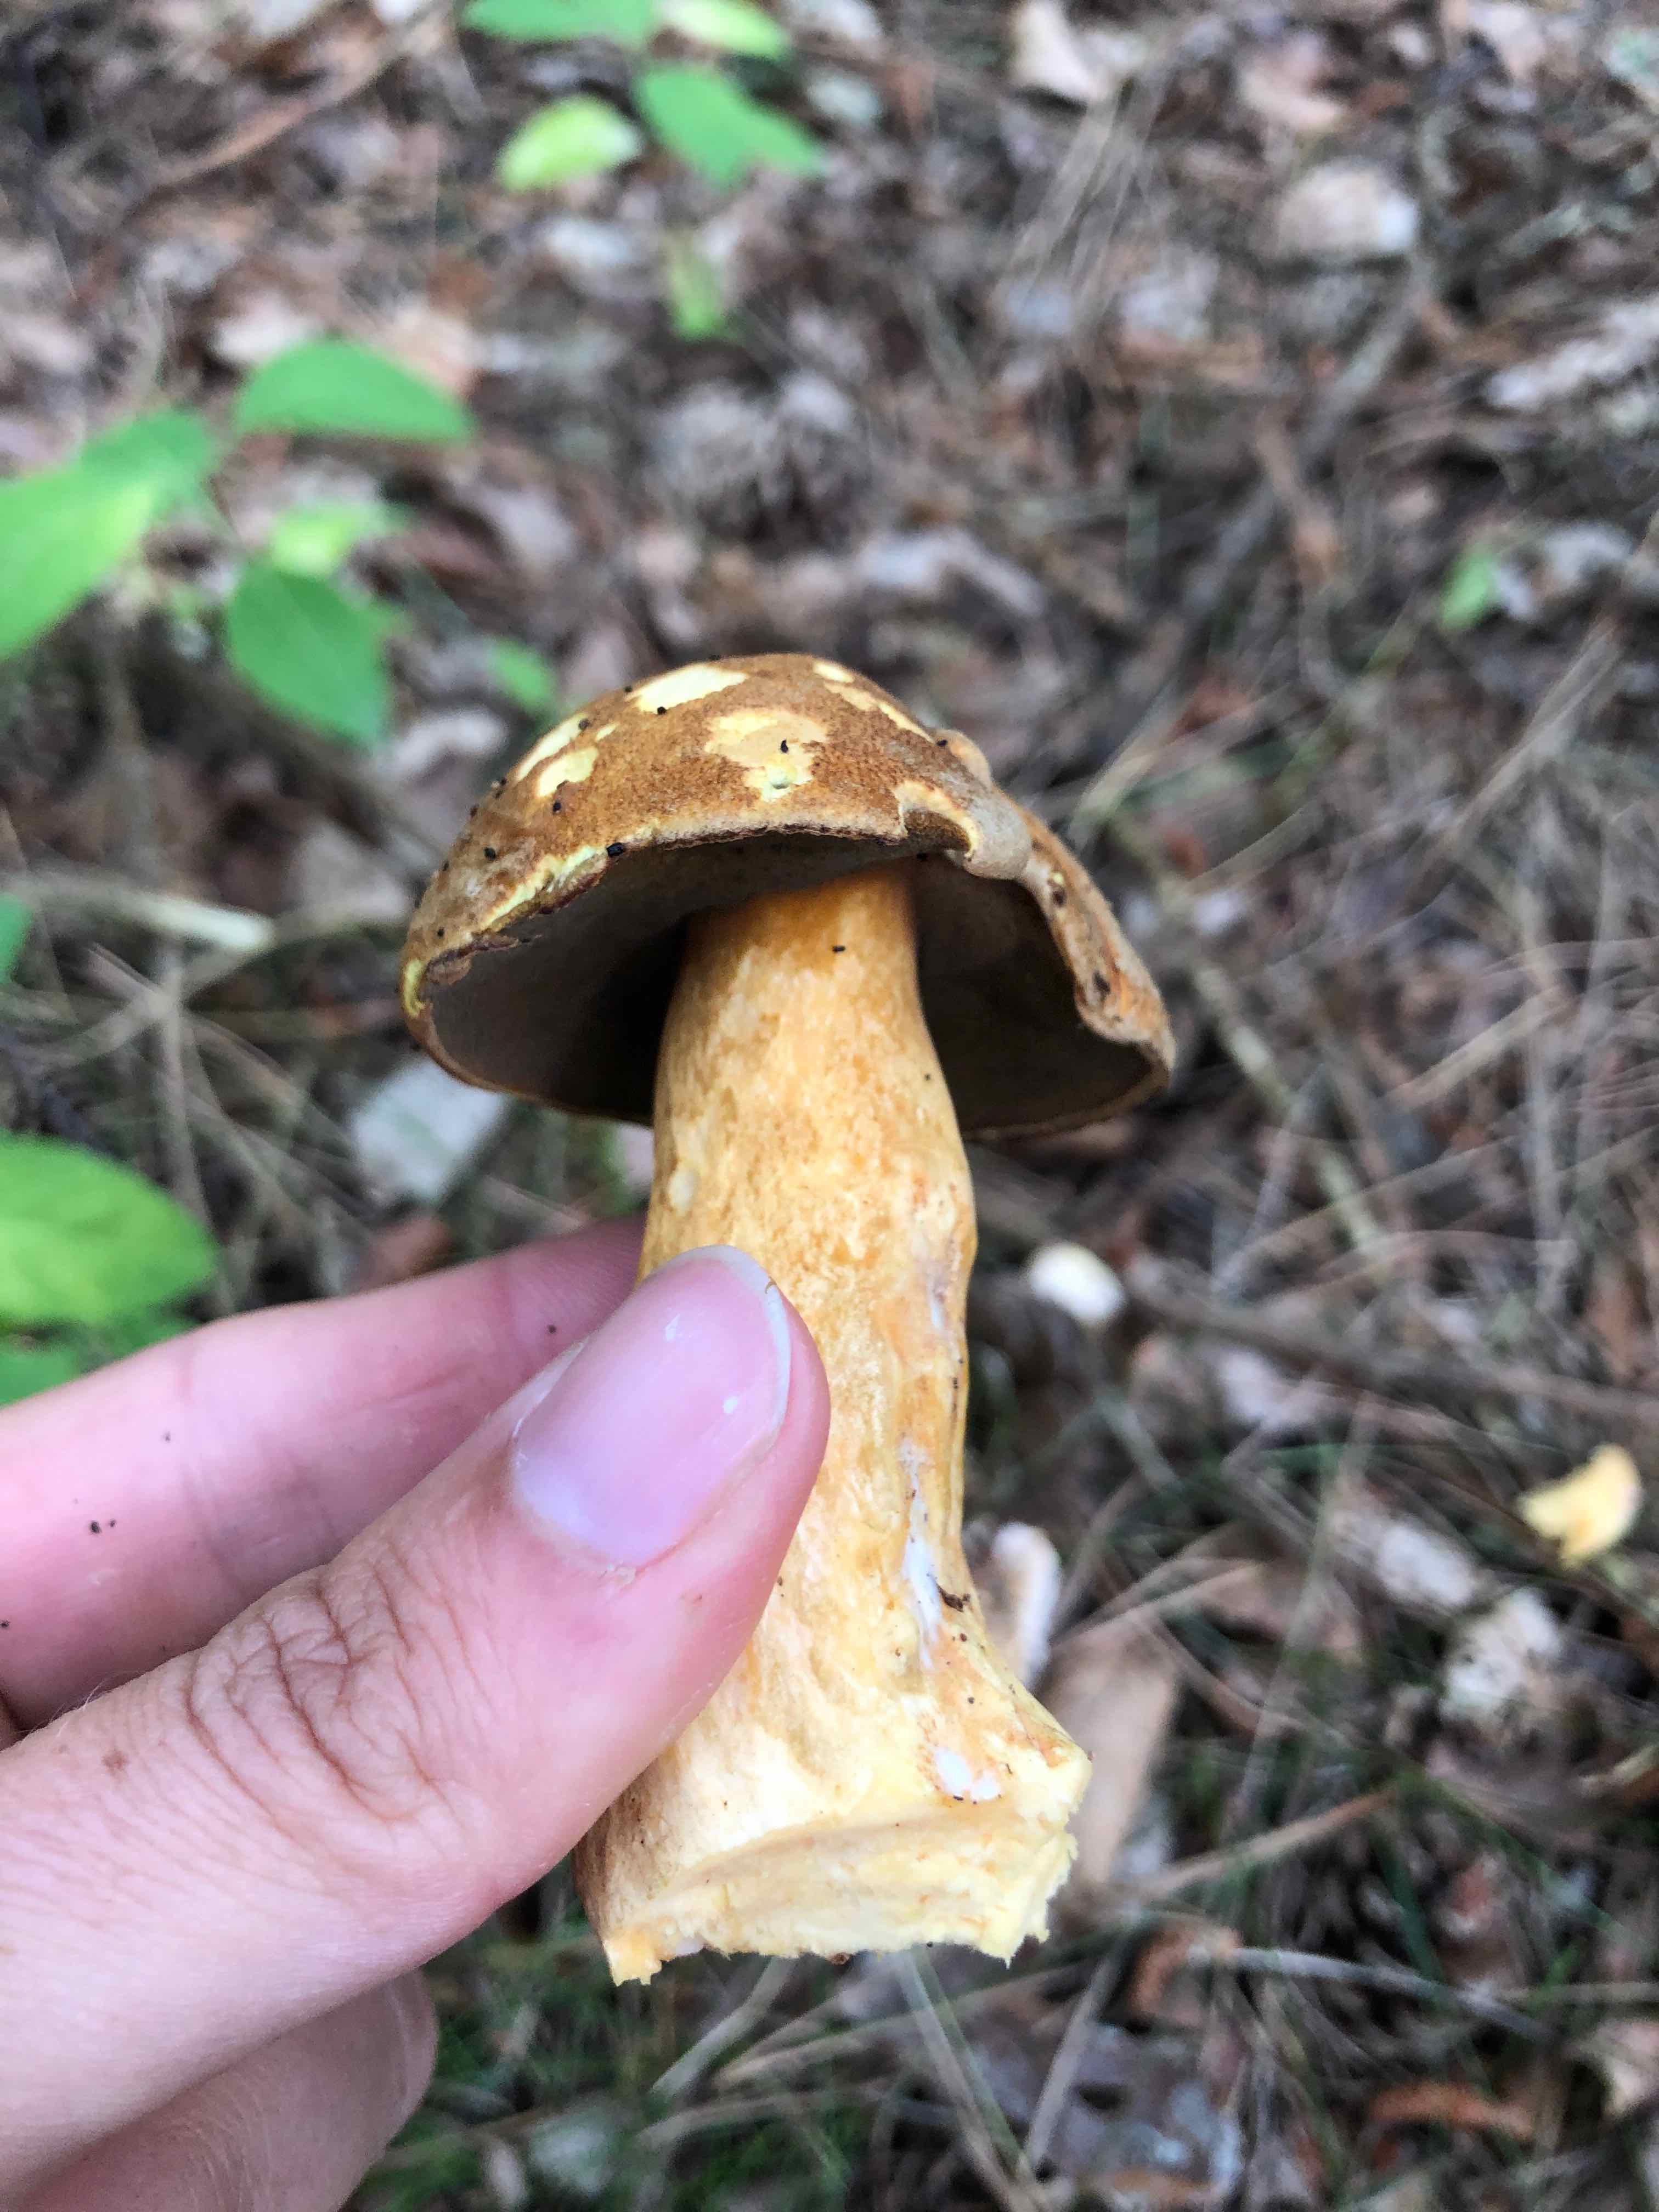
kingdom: Fungi
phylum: Basidiomycota
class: Agaricomycetes
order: Boletales
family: Suillaceae
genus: Suillus
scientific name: Suillus variegatus
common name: broget slimrørhat
